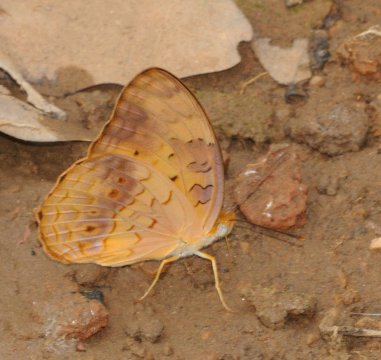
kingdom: Animalia
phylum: Arthropoda
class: Insecta
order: Lepidoptera
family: Nymphalidae
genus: Phalanta
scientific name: Phalanta phalantha
